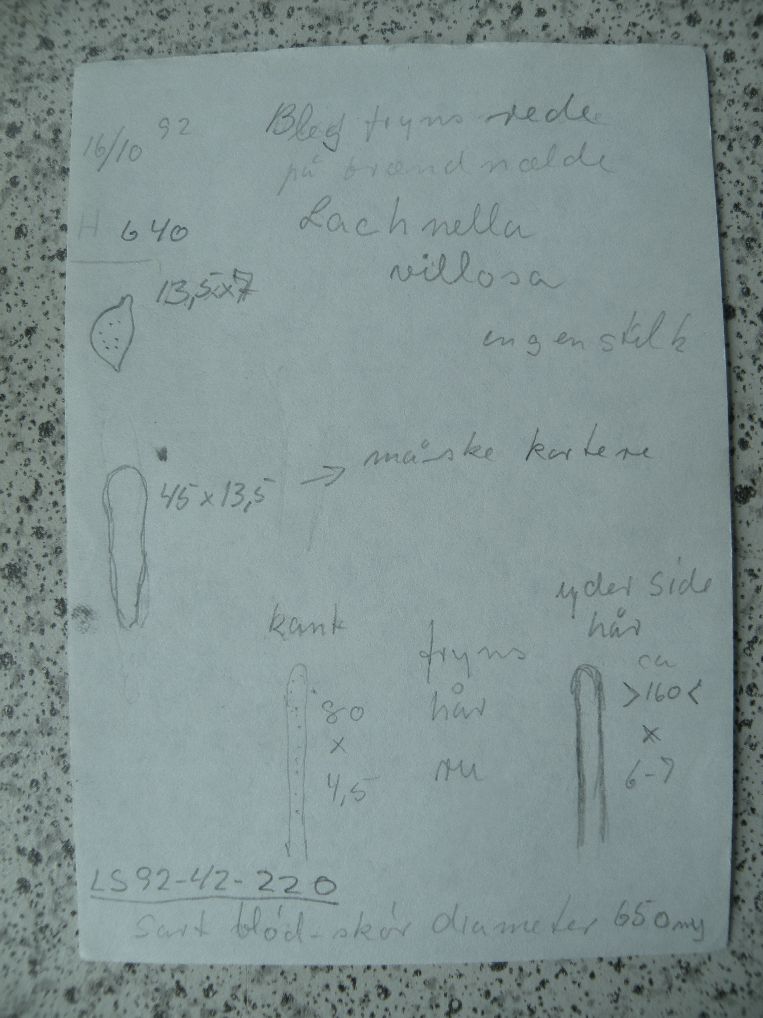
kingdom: Fungi
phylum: Basidiomycota
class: Agaricomycetes
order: Agaricales
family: Niaceae
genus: Lachnella
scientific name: Lachnella villosa
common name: hvid frynserede
